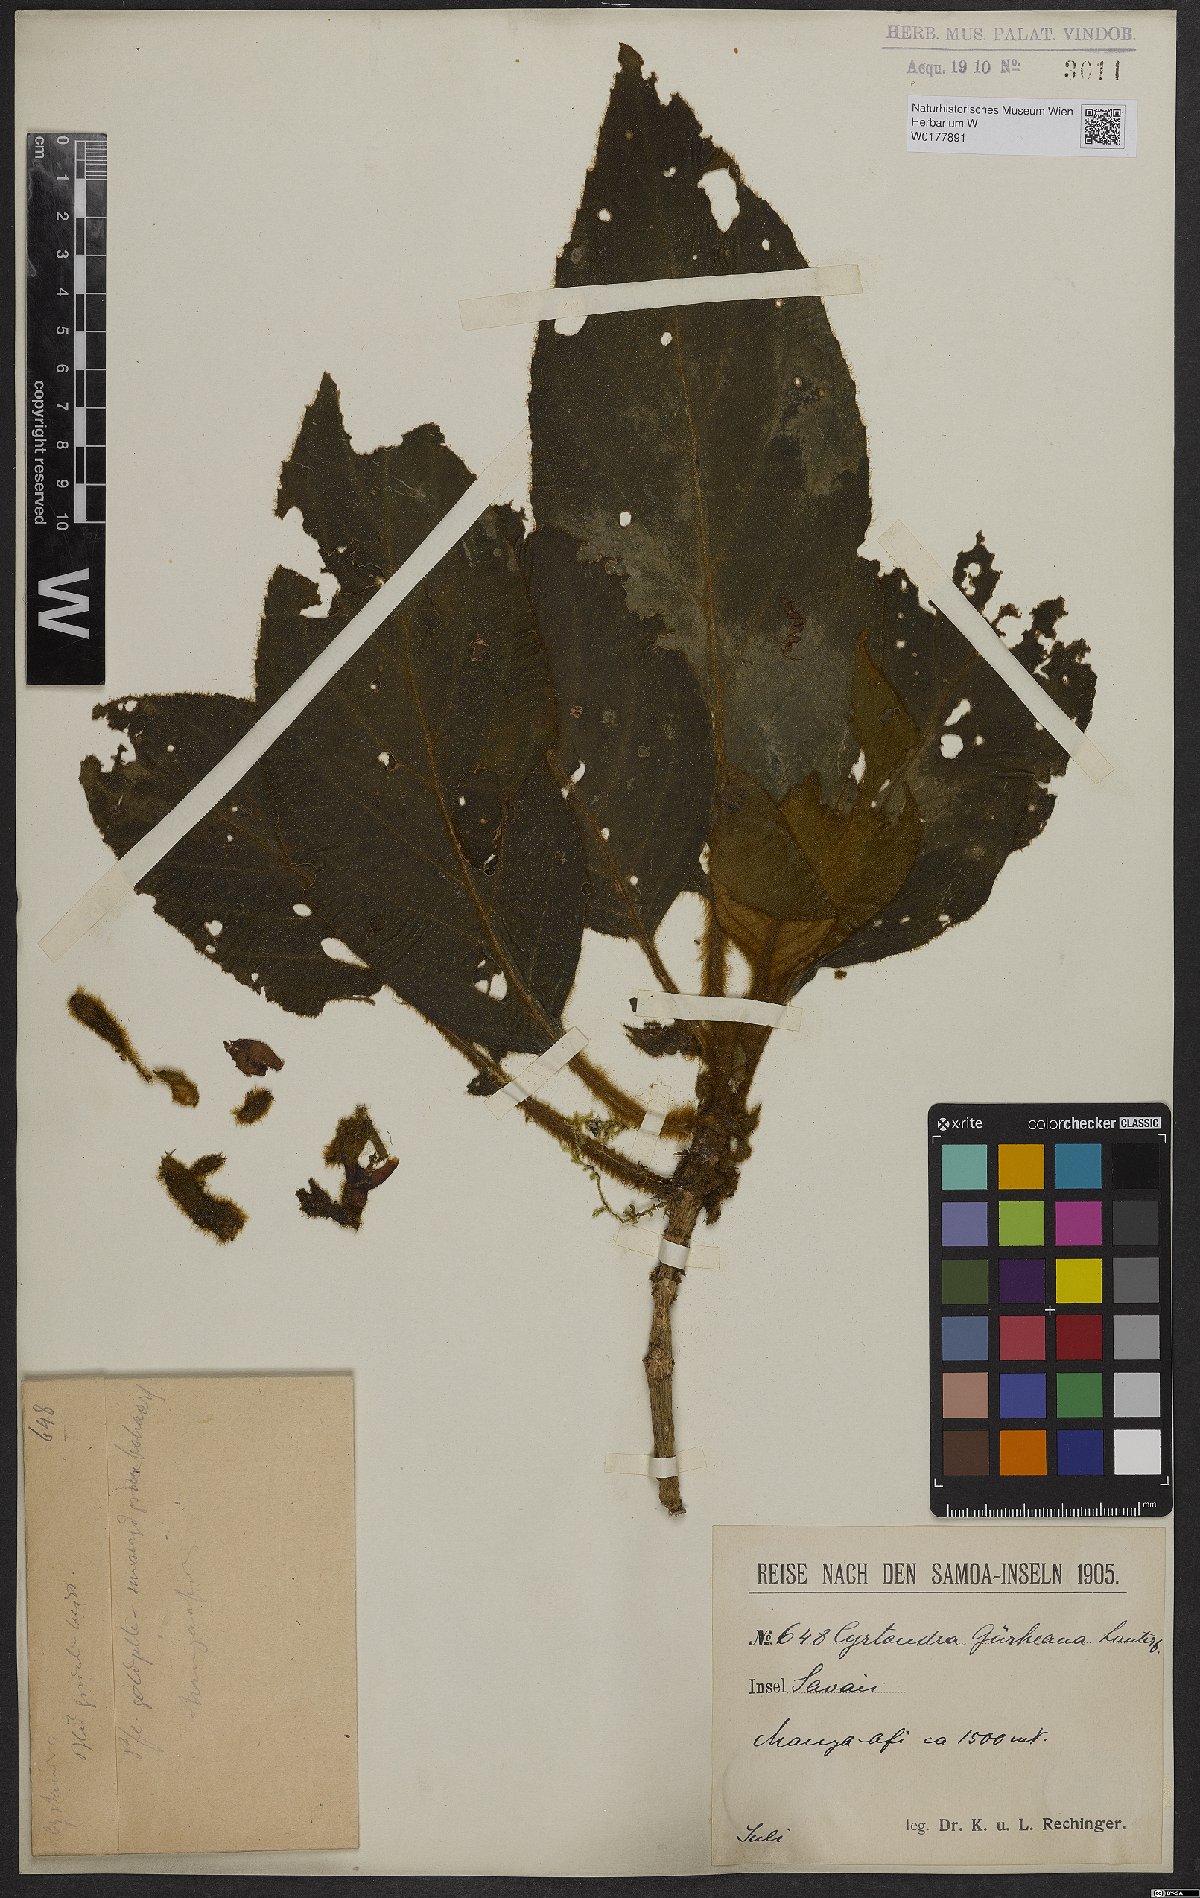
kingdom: Plantae
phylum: Tracheophyta
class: Magnoliopsida
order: Lamiales
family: Gesneriaceae
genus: Cyrtandra
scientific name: Cyrtandra guerkeana
